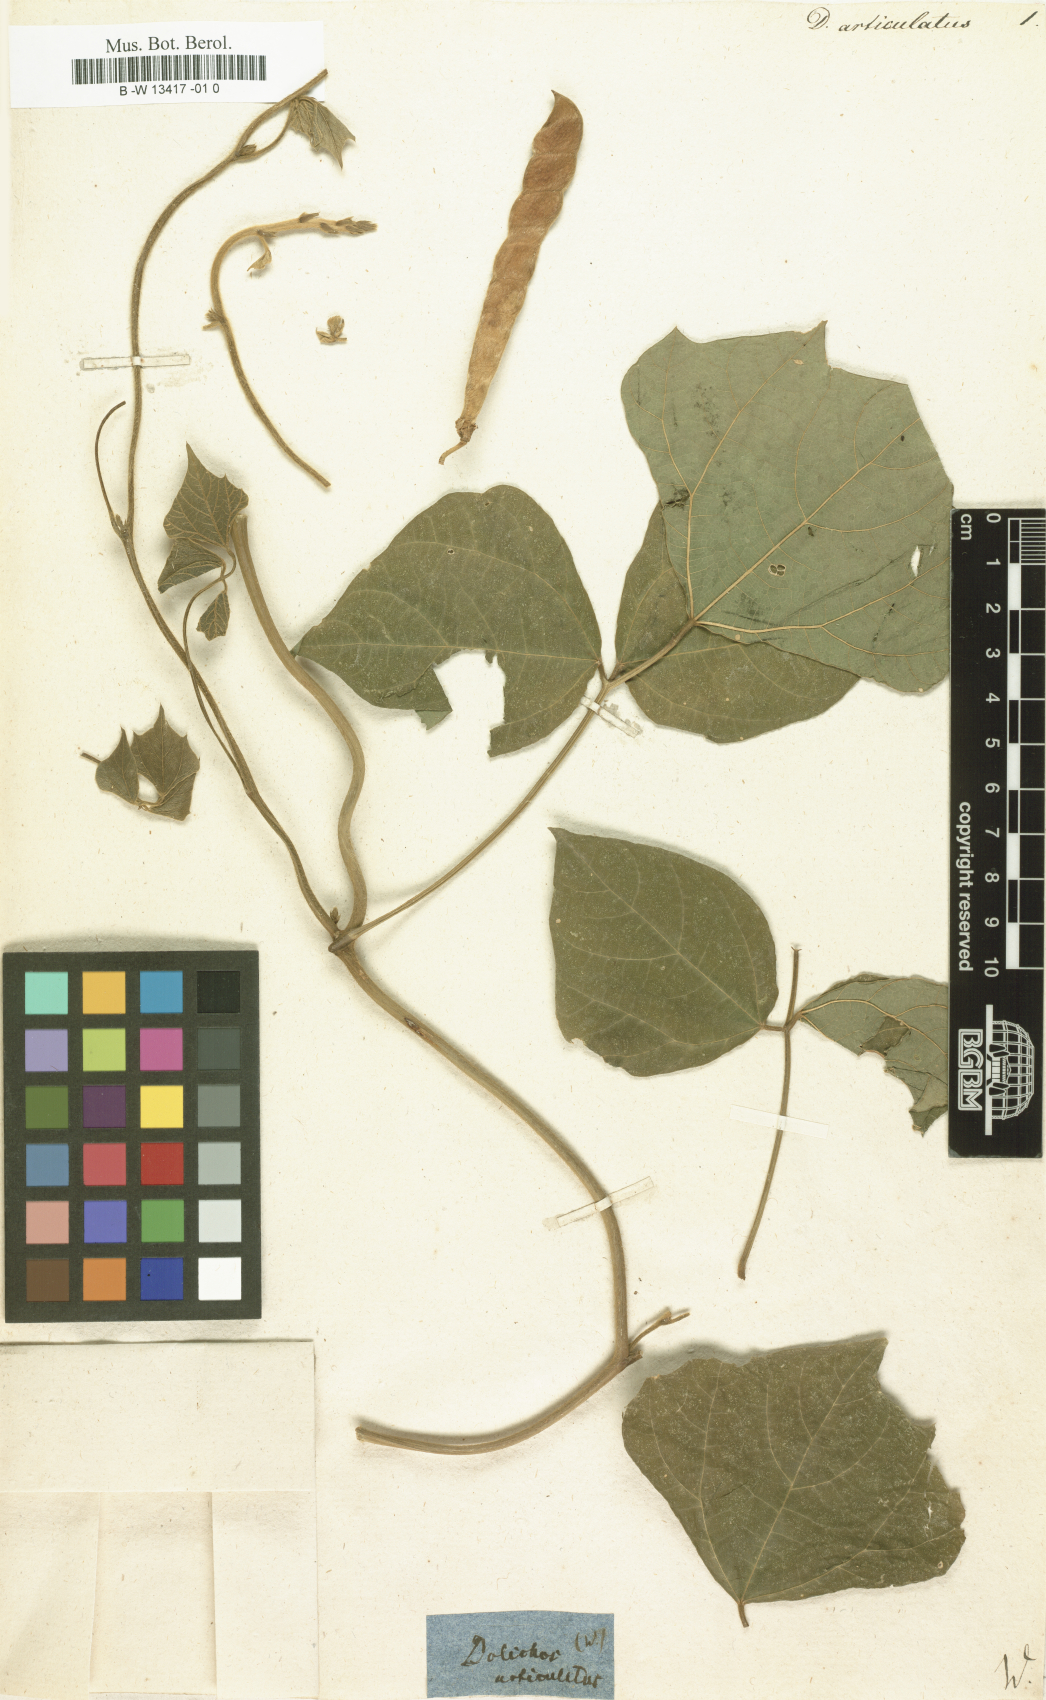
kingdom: Plantae
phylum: Tracheophyta
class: Magnoliopsida
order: Fabales
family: Fabaceae
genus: Pachyrhizus
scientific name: Pachyrhizus erosus
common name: Yam bean
